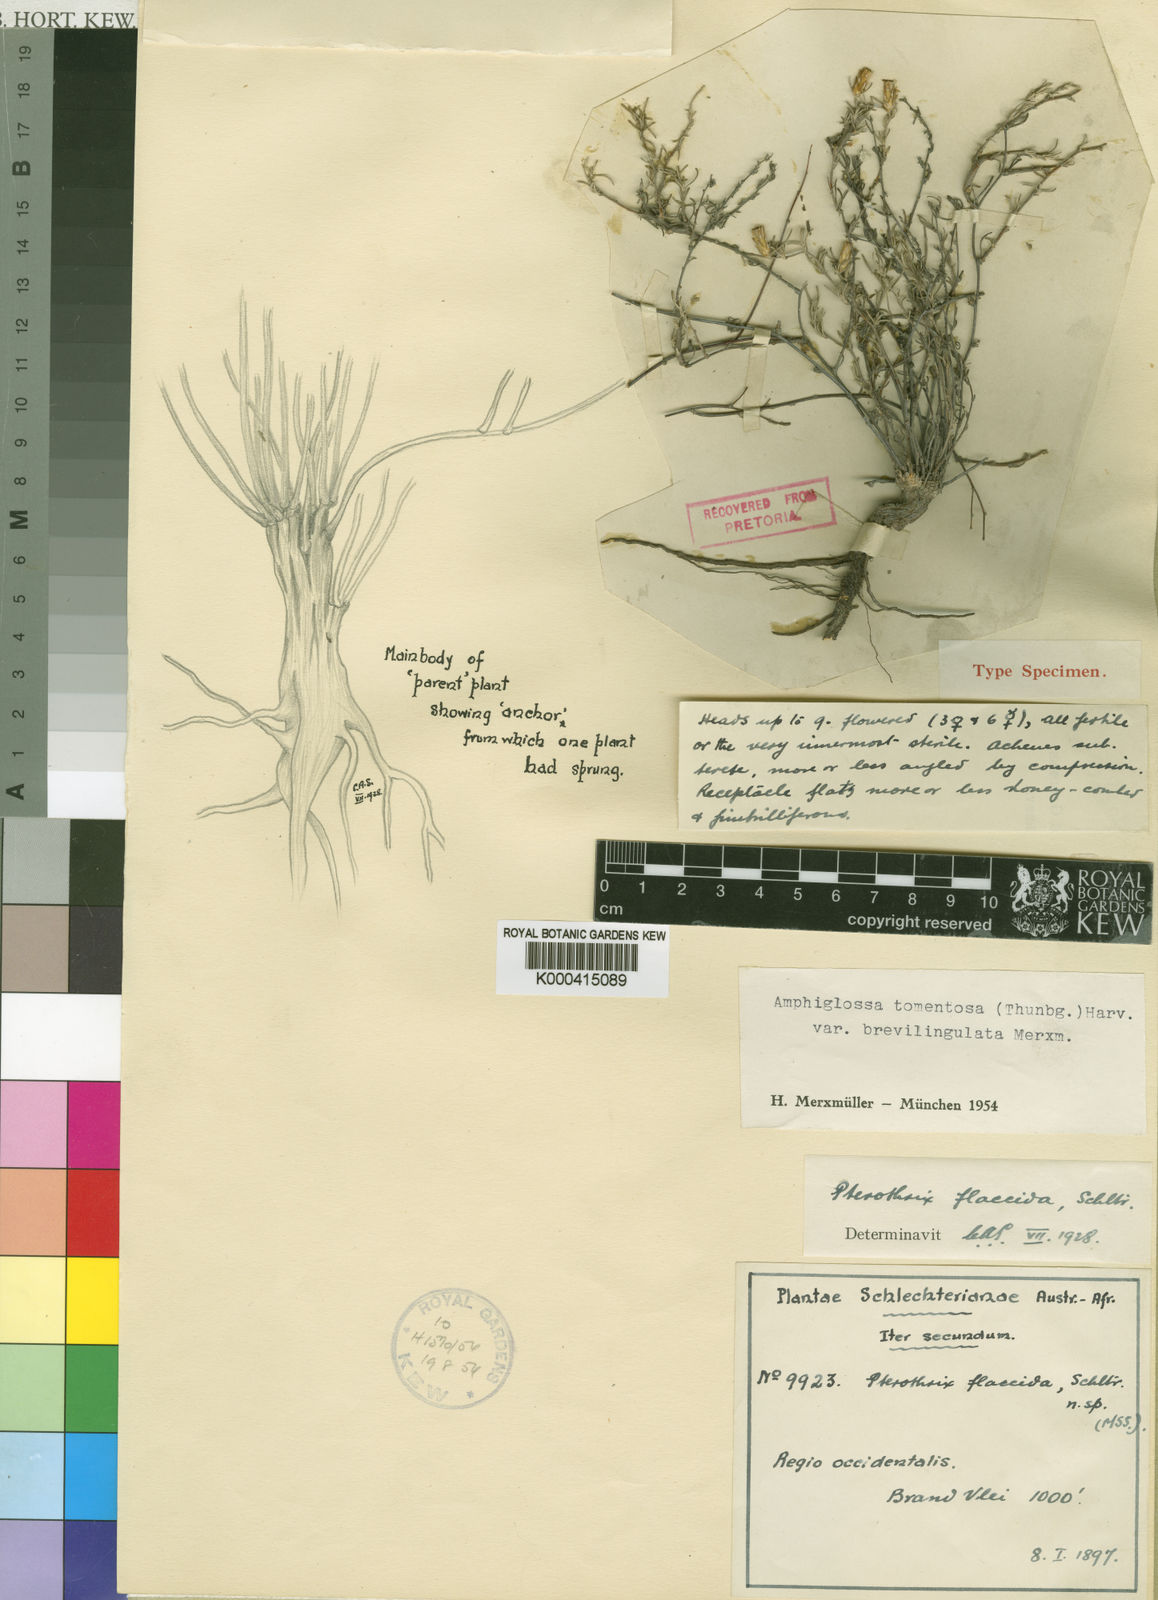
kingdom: Plantae
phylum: Tracheophyta
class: Magnoliopsida
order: Asterales
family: Asteraceae
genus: Amphiglossa
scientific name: Amphiglossa tomentosa
